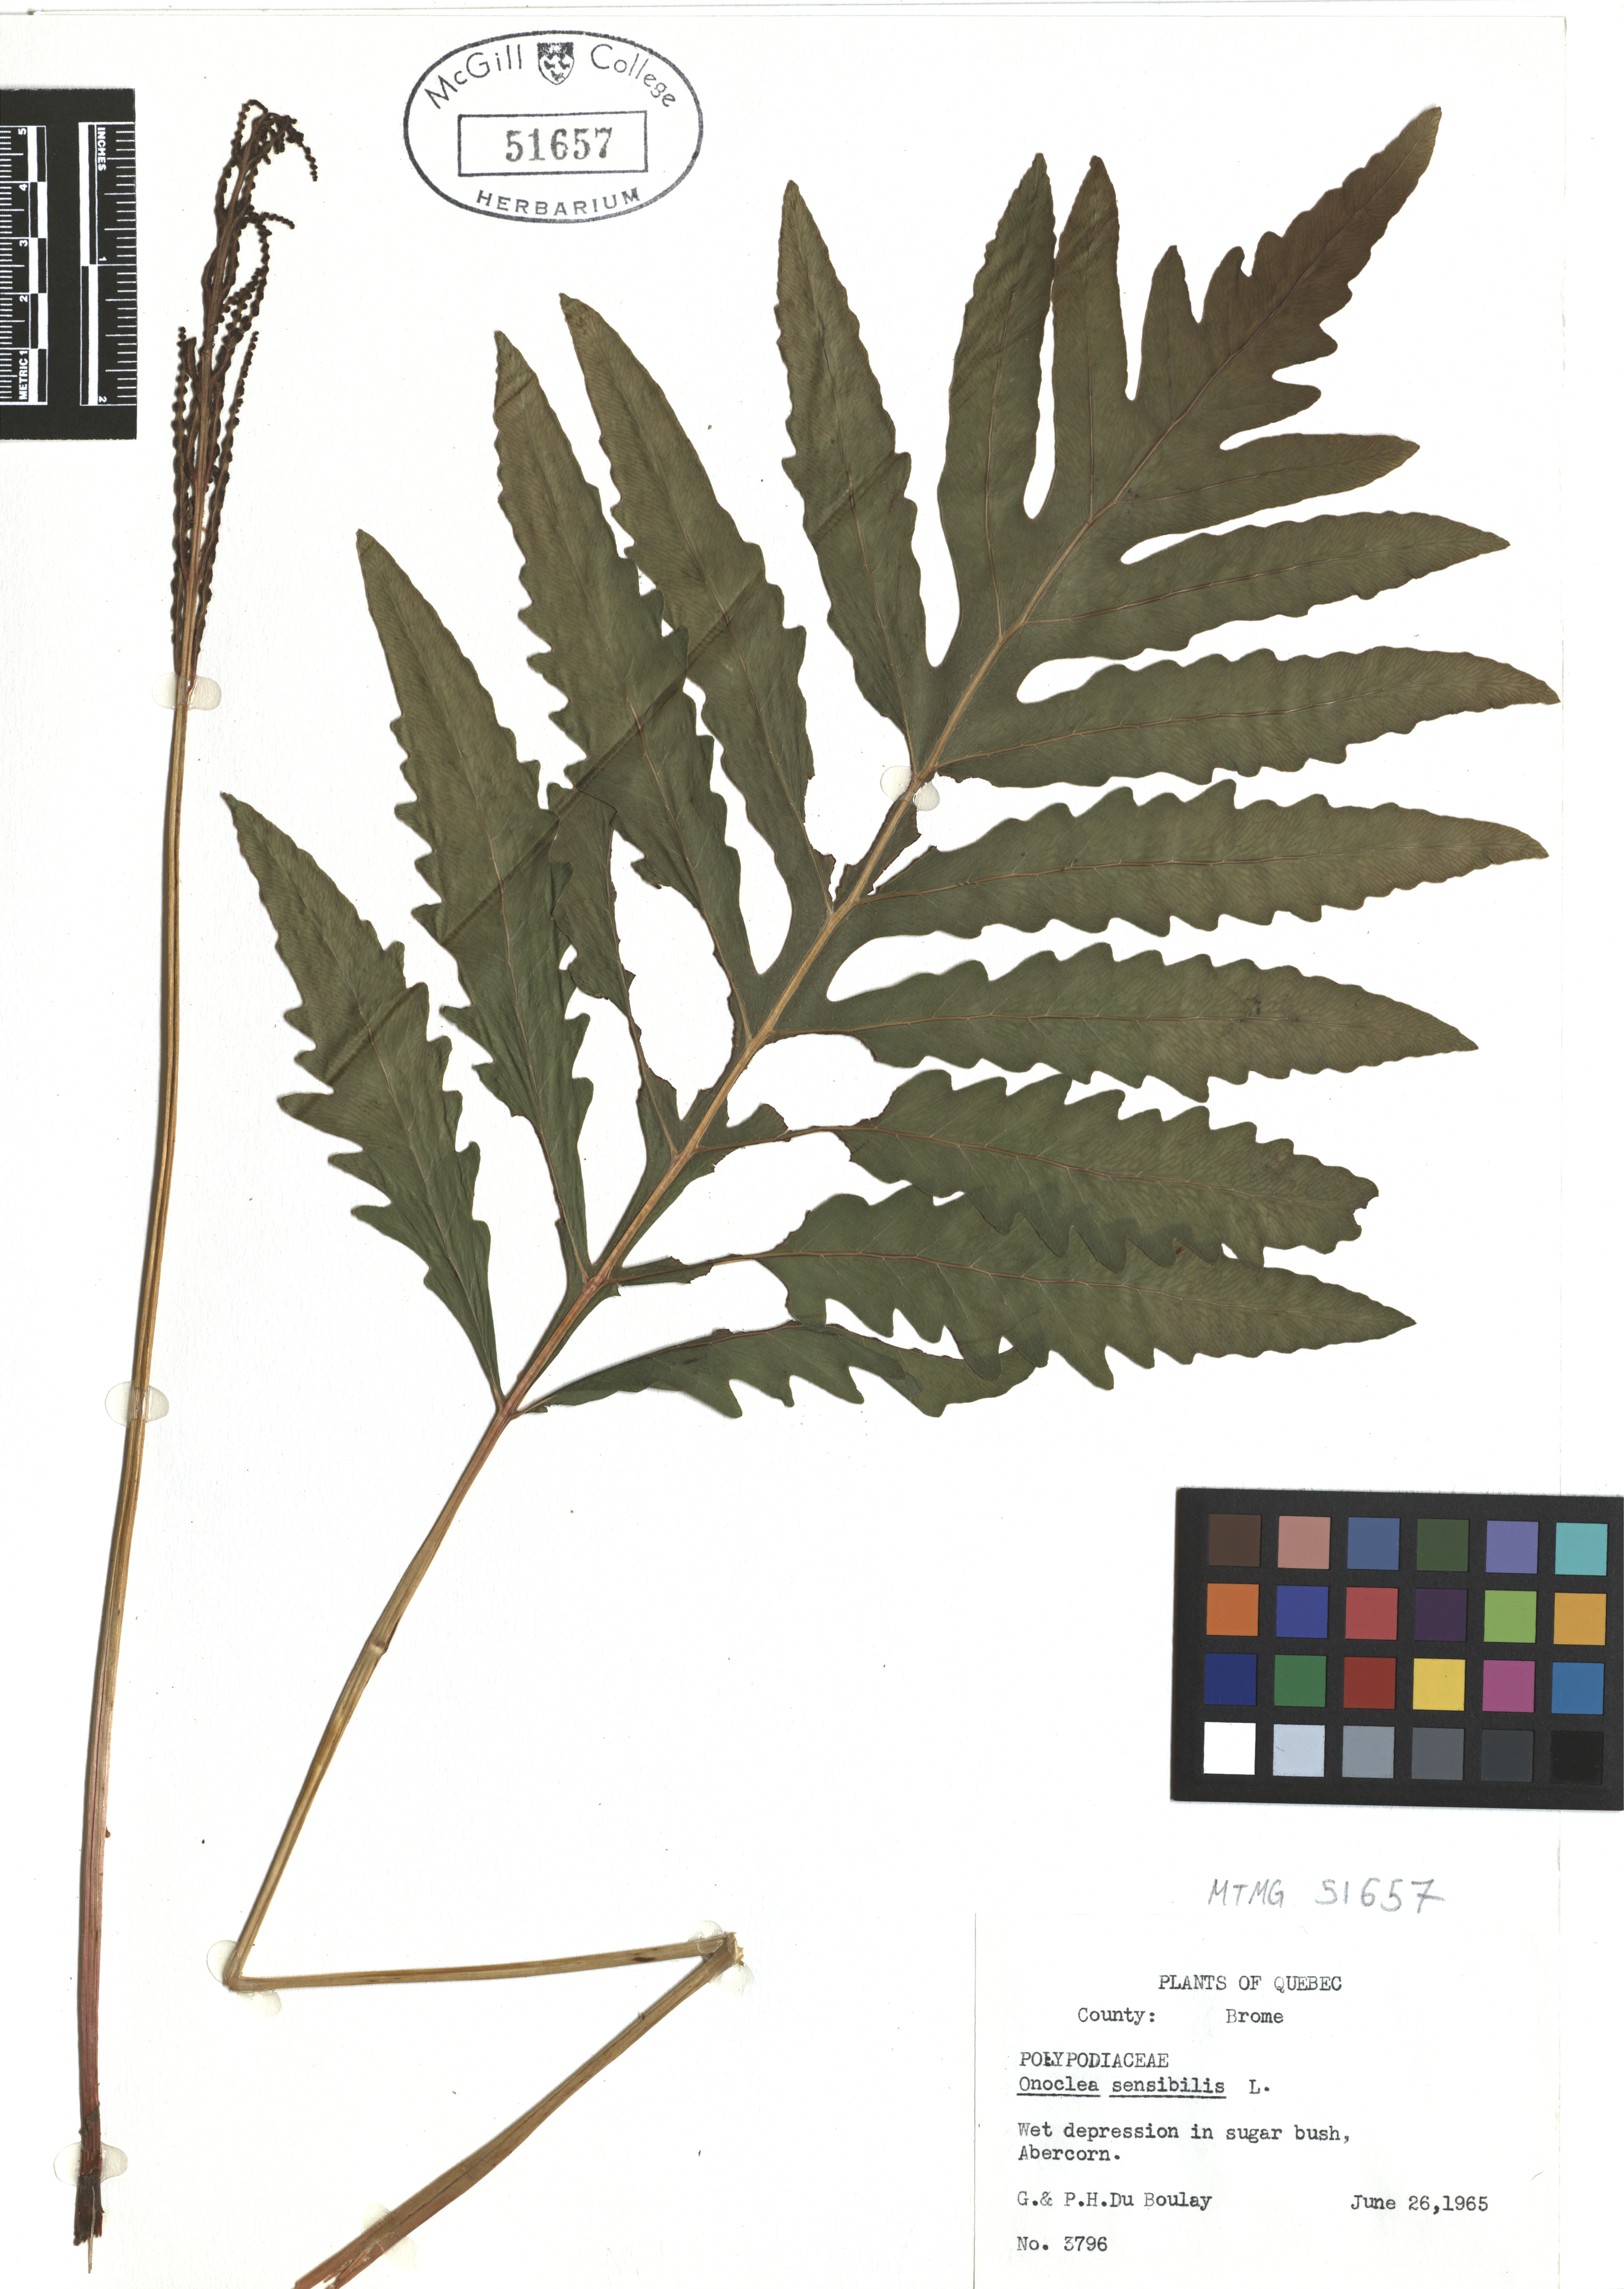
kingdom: Plantae
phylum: Tracheophyta
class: Polypodiopsida
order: Polypodiales
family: Onocleaceae
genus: Onoclea
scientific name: Onoclea sensibilis
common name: Sensitive fern
